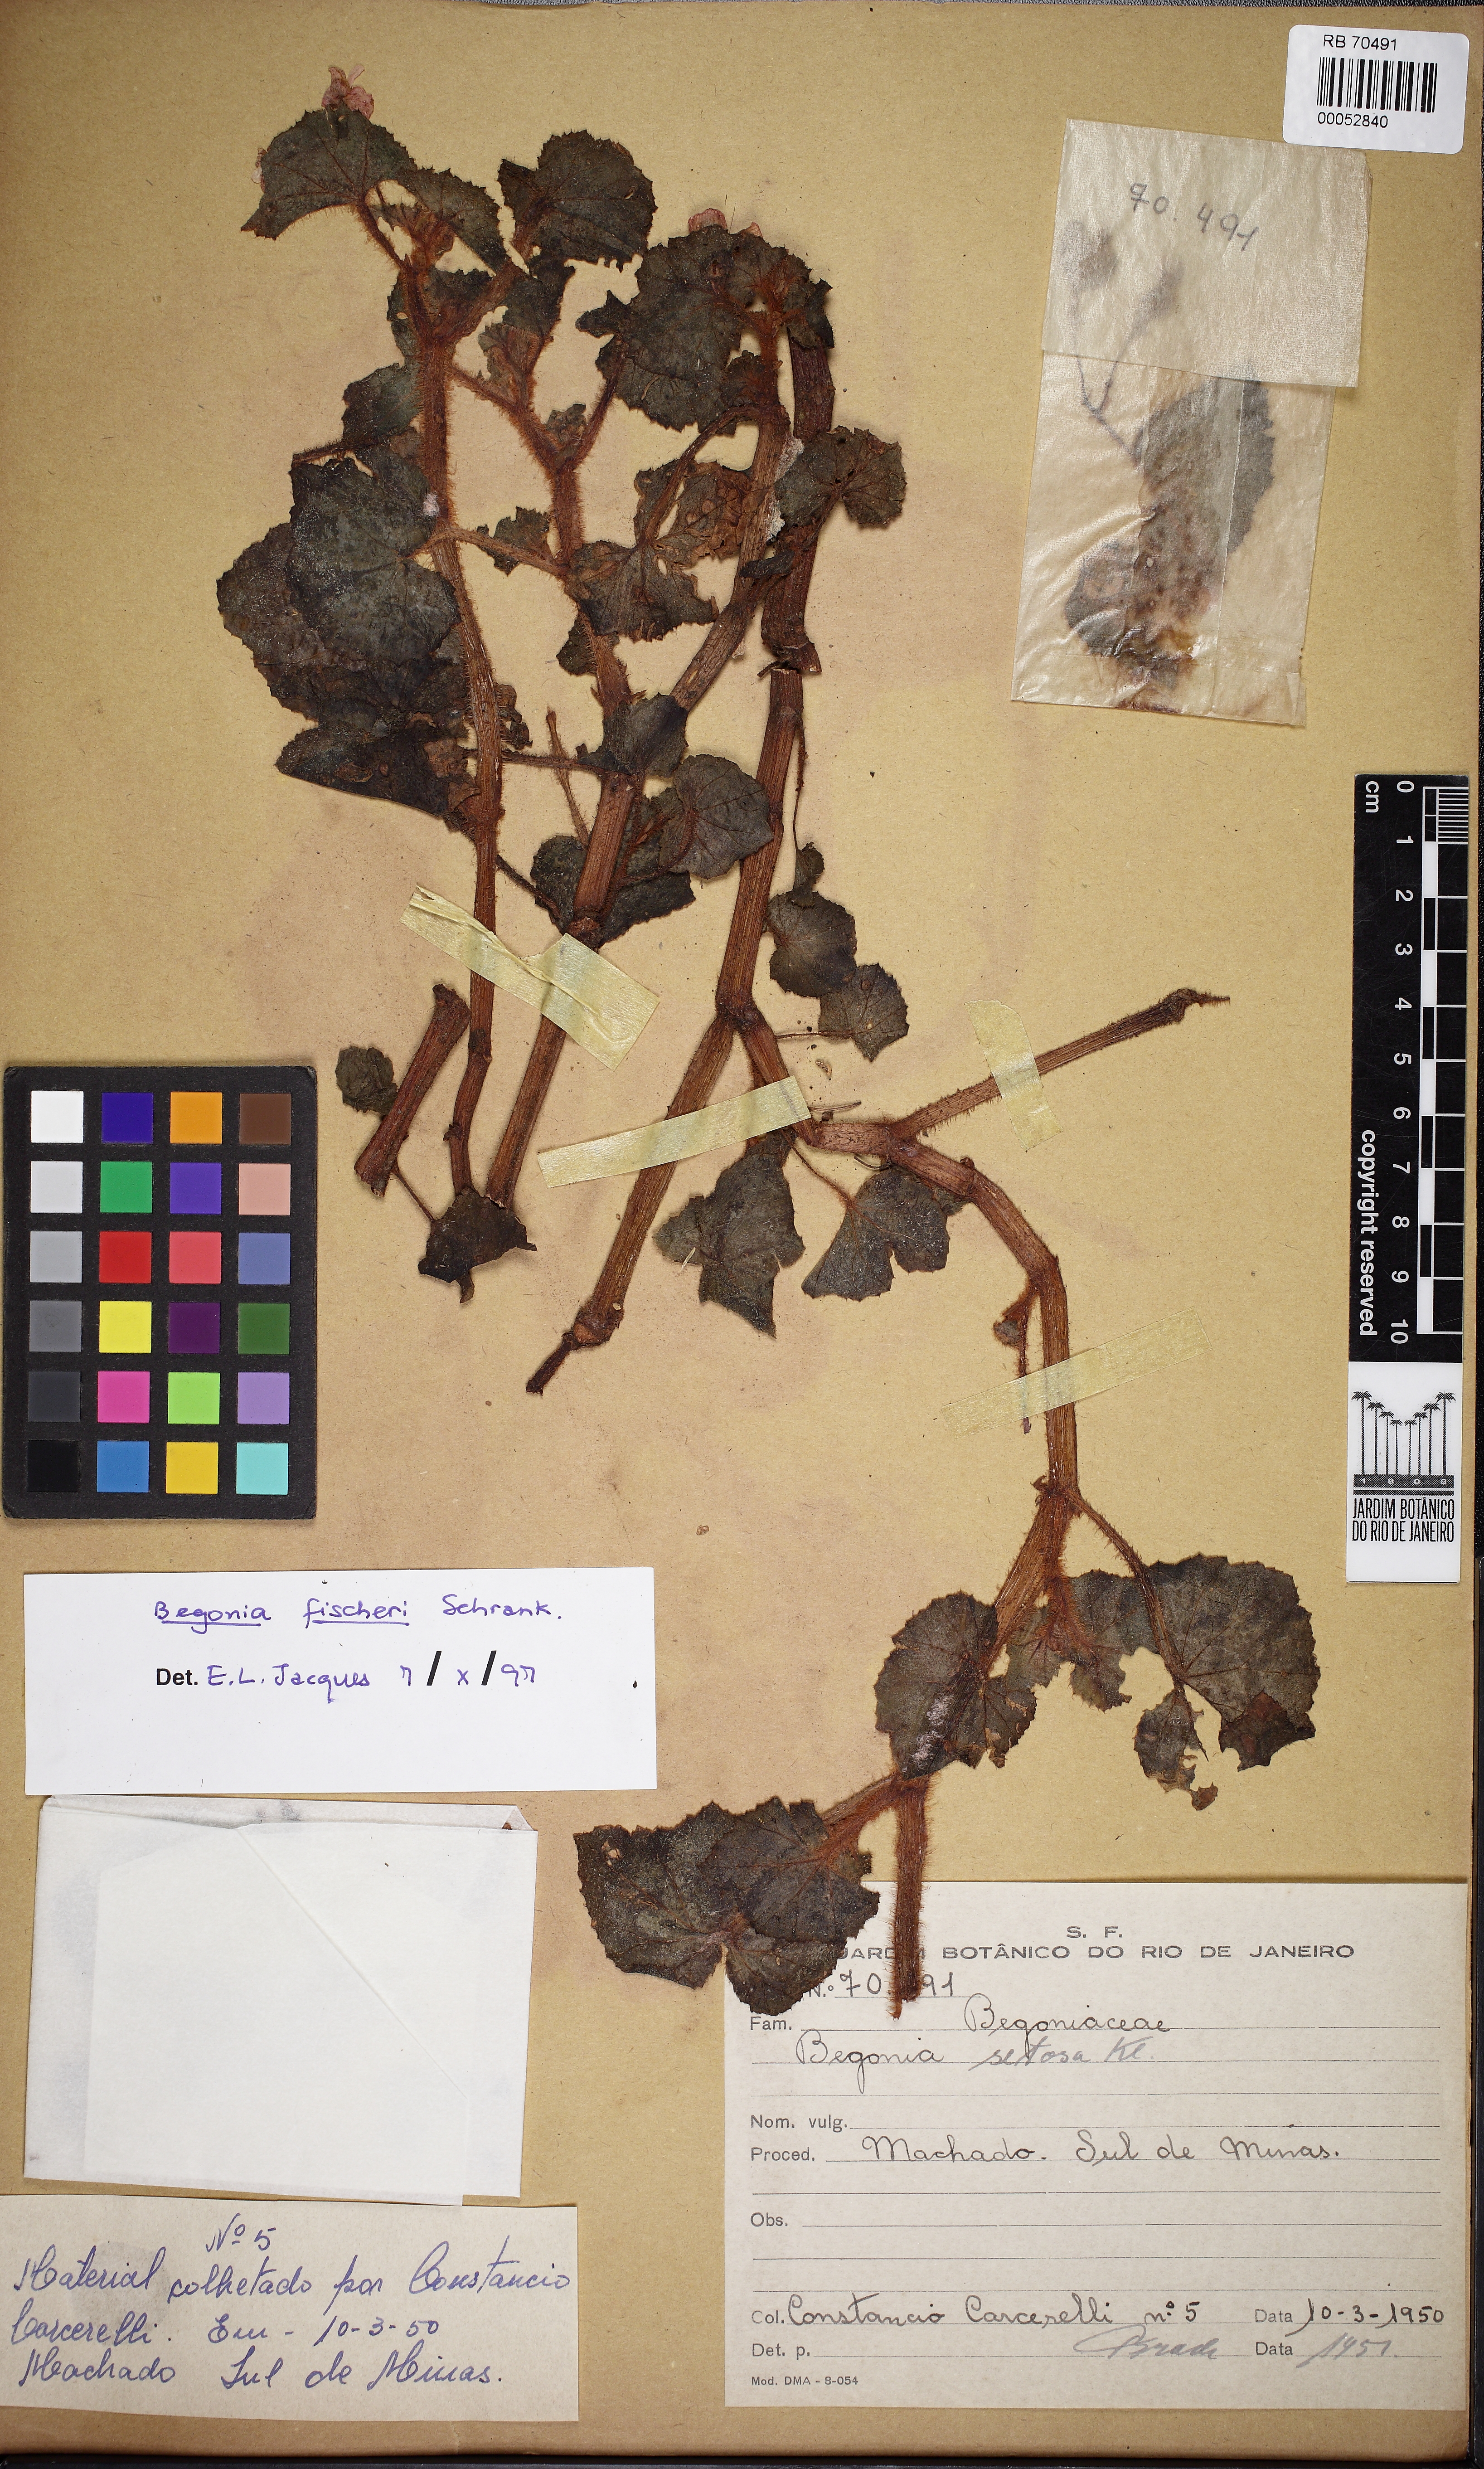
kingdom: Plantae
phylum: Tracheophyta
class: Magnoliopsida
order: Cucurbitales
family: Begoniaceae
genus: Begonia
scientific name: Begonia fischeri
